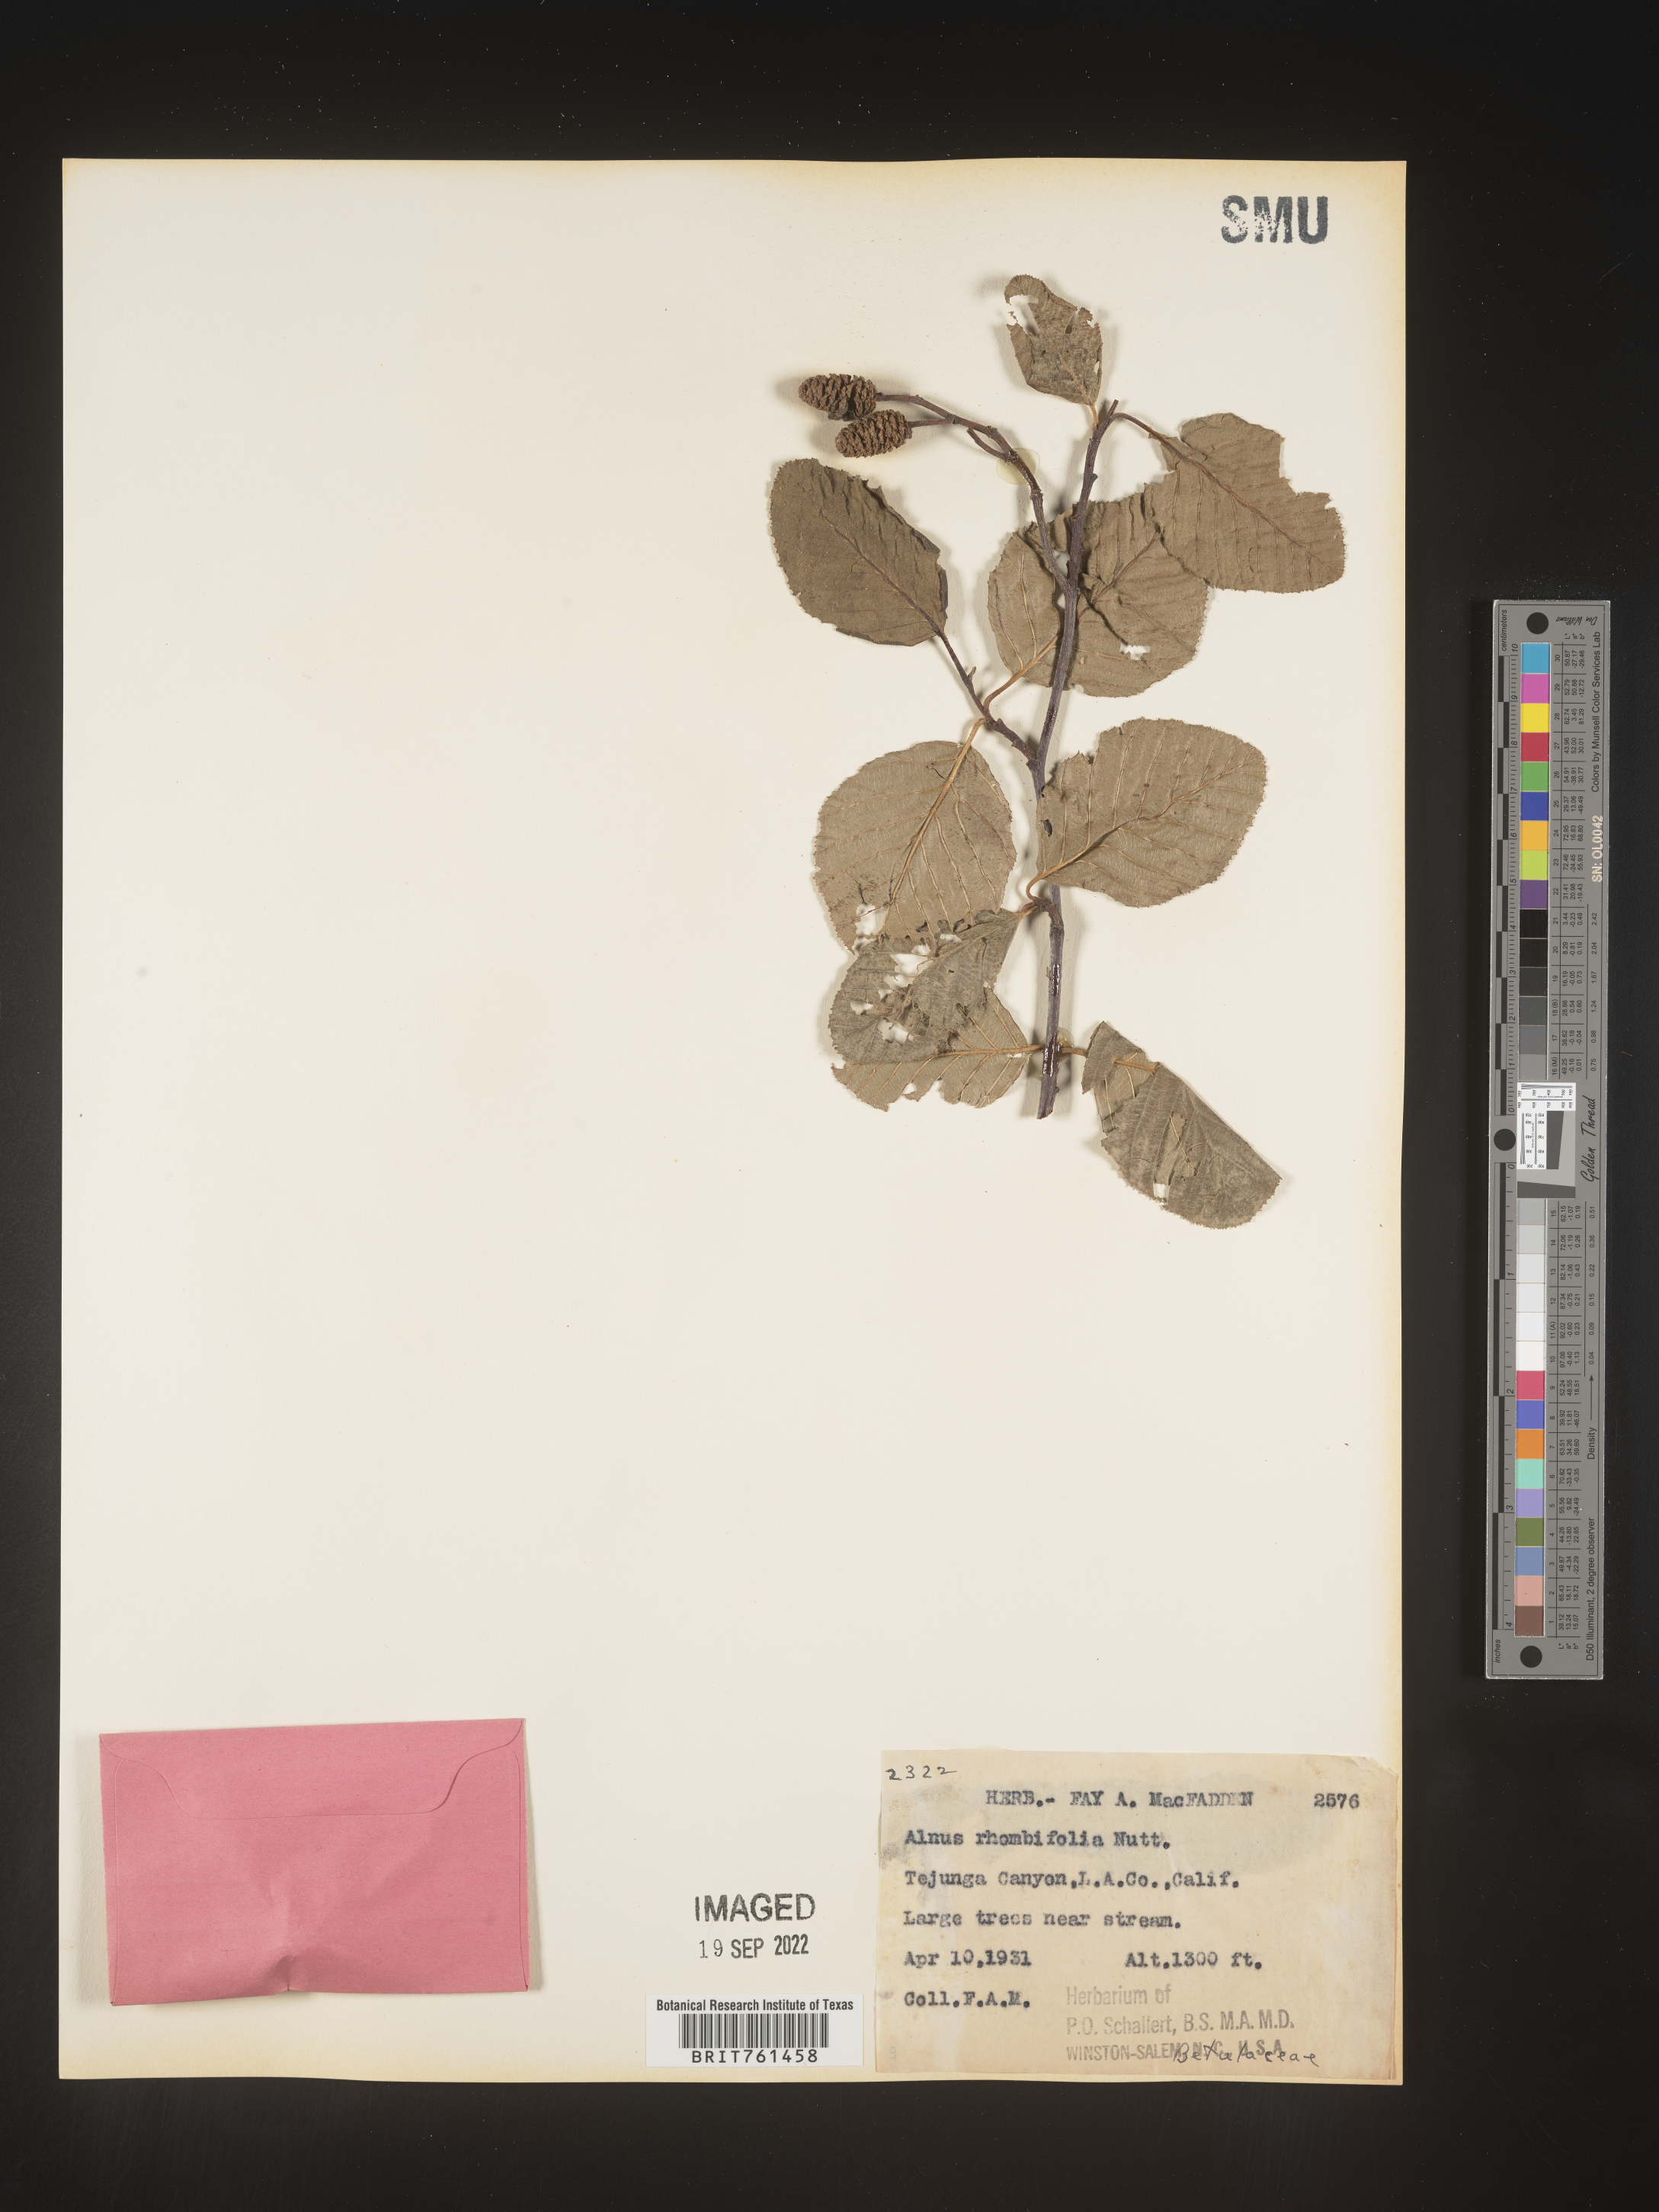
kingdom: Plantae
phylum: Tracheophyta
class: Magnoliopsida
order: Fagales
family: Betulaceae
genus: Alnus
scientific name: Alnus rhombifolia
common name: California alder
